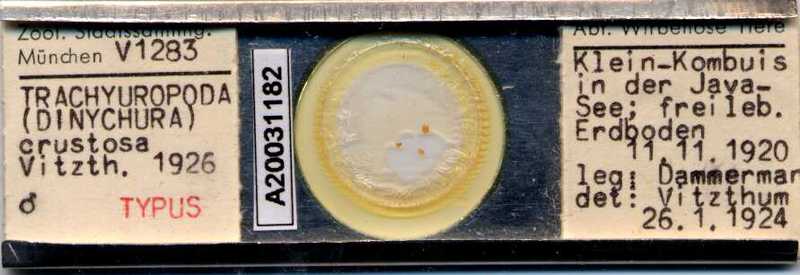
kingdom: Animalia
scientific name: Animalia
